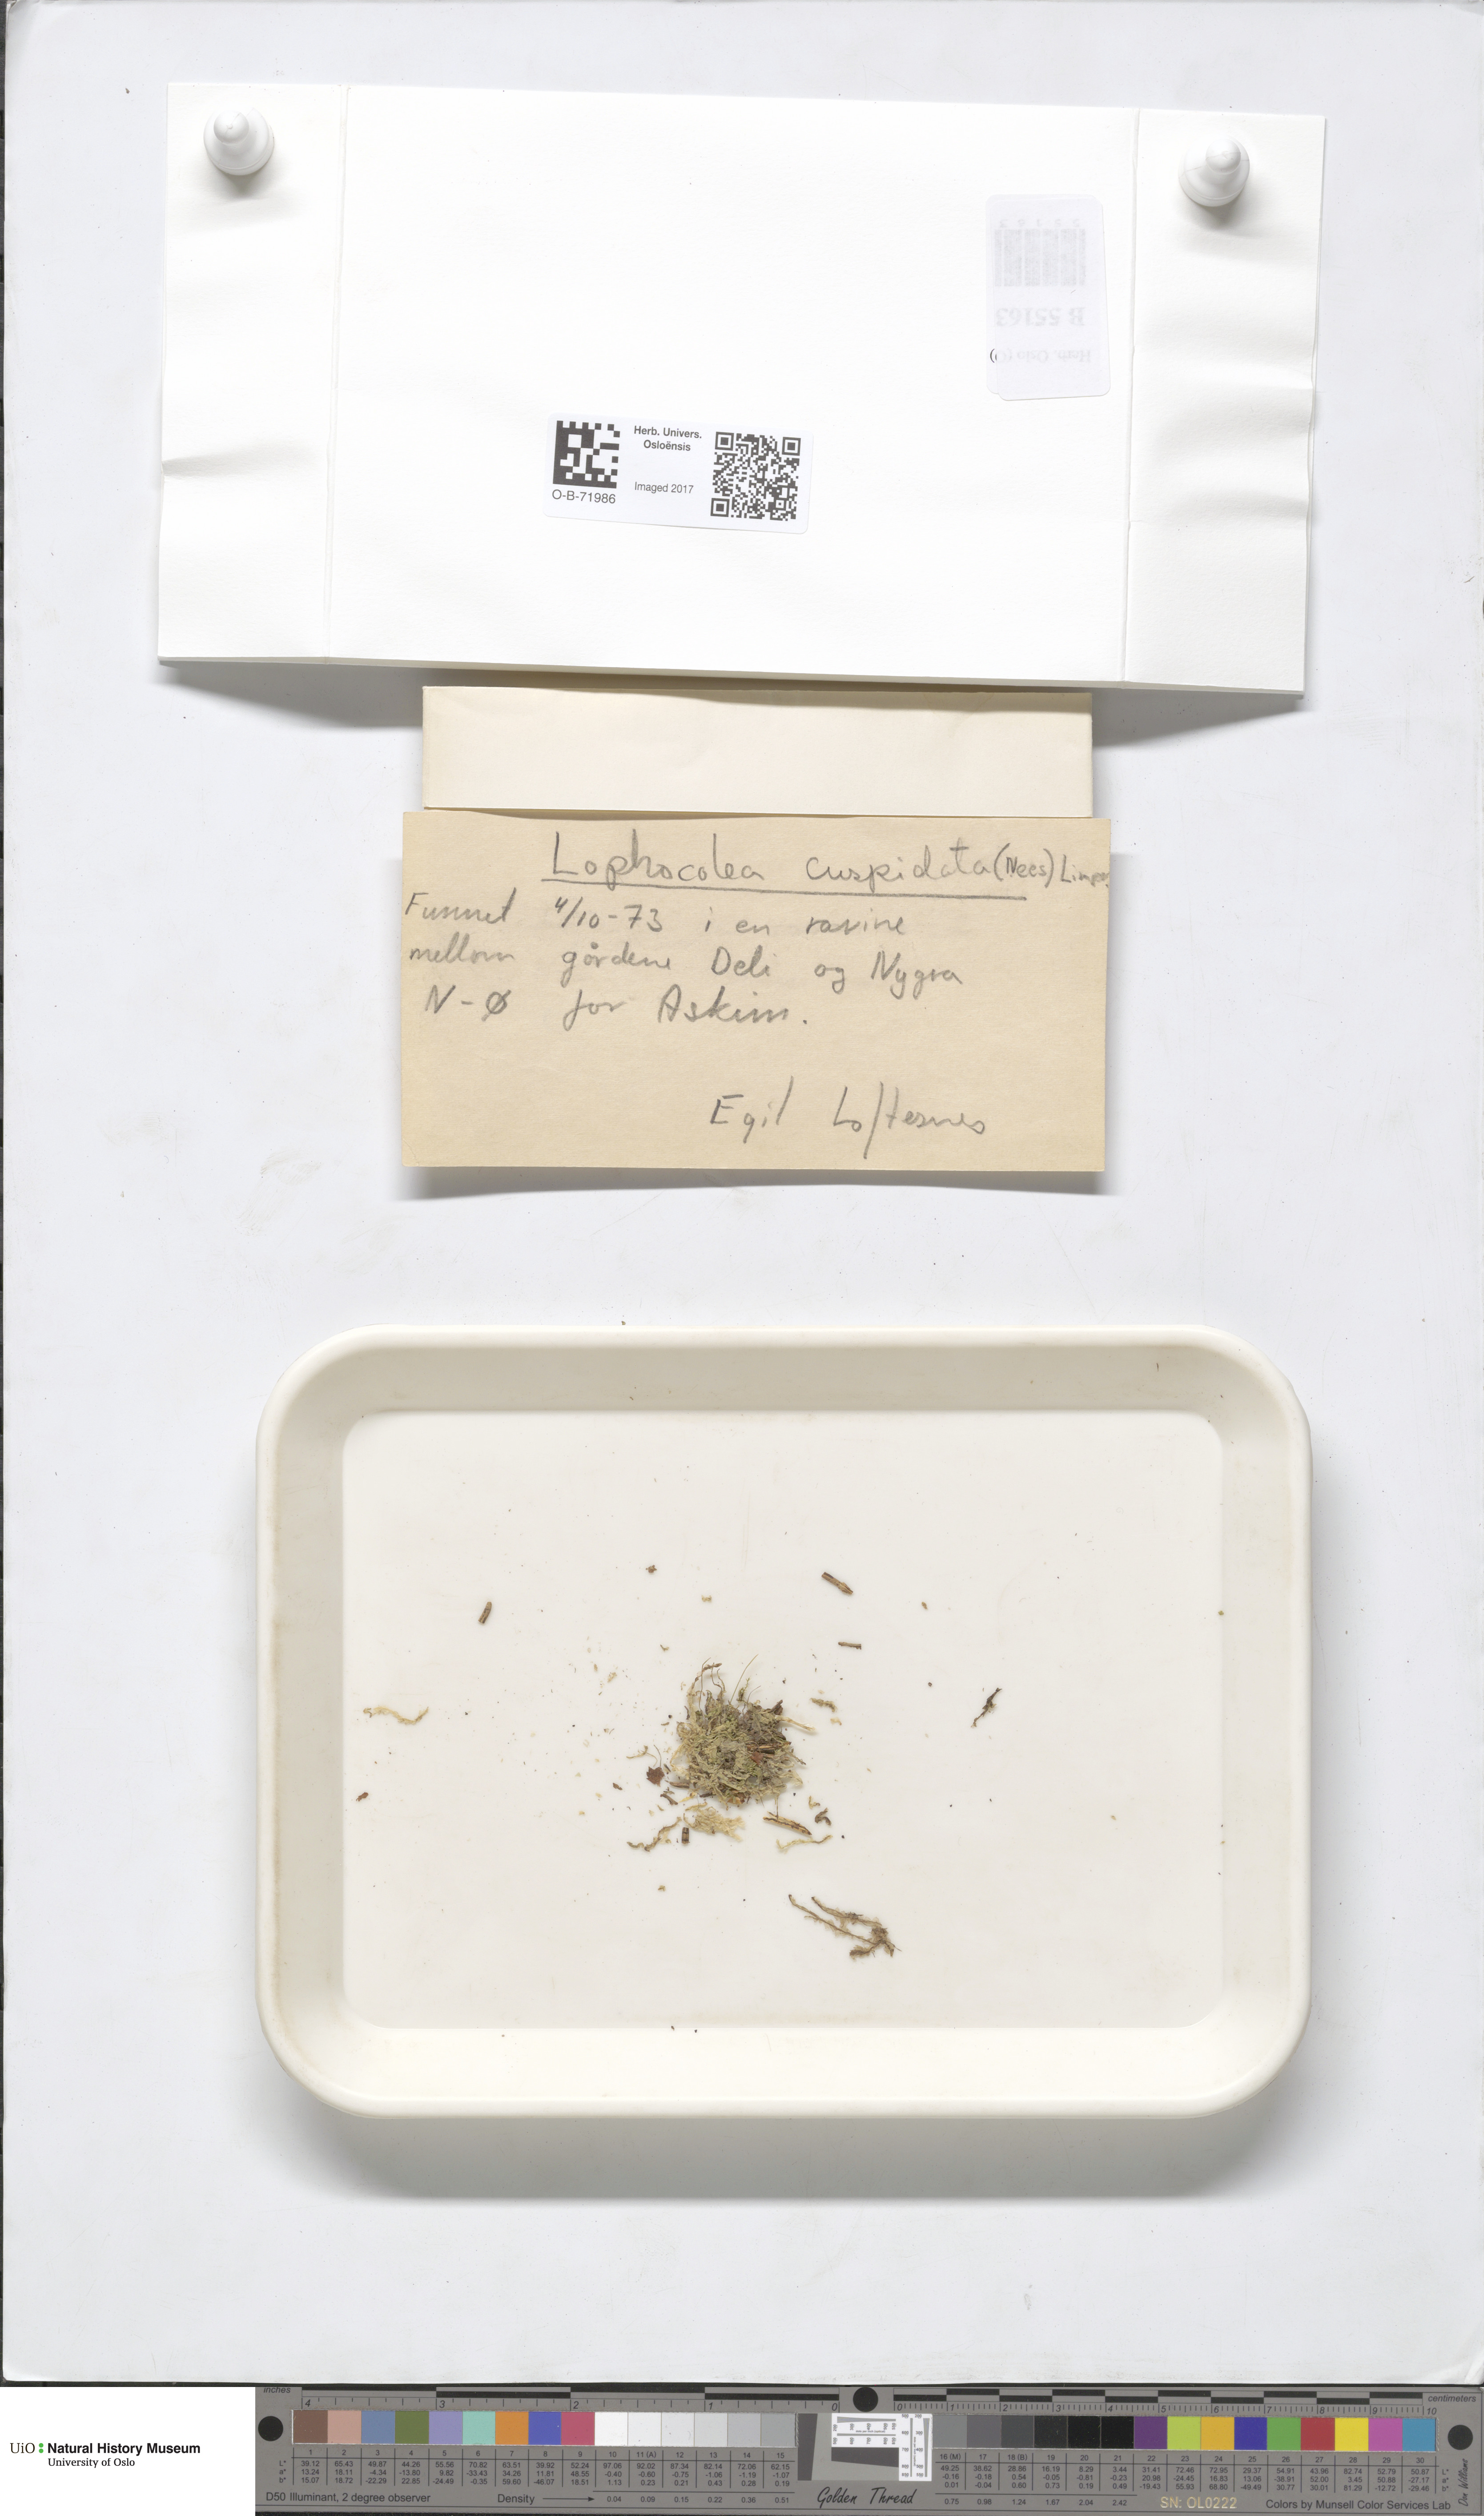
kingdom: Plantae
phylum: Marchantiophyta
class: Jungermanniopsida
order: Jungermanniales
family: Lophocoleaceae
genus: Lophocolea
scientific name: Lophocolea coadunata
